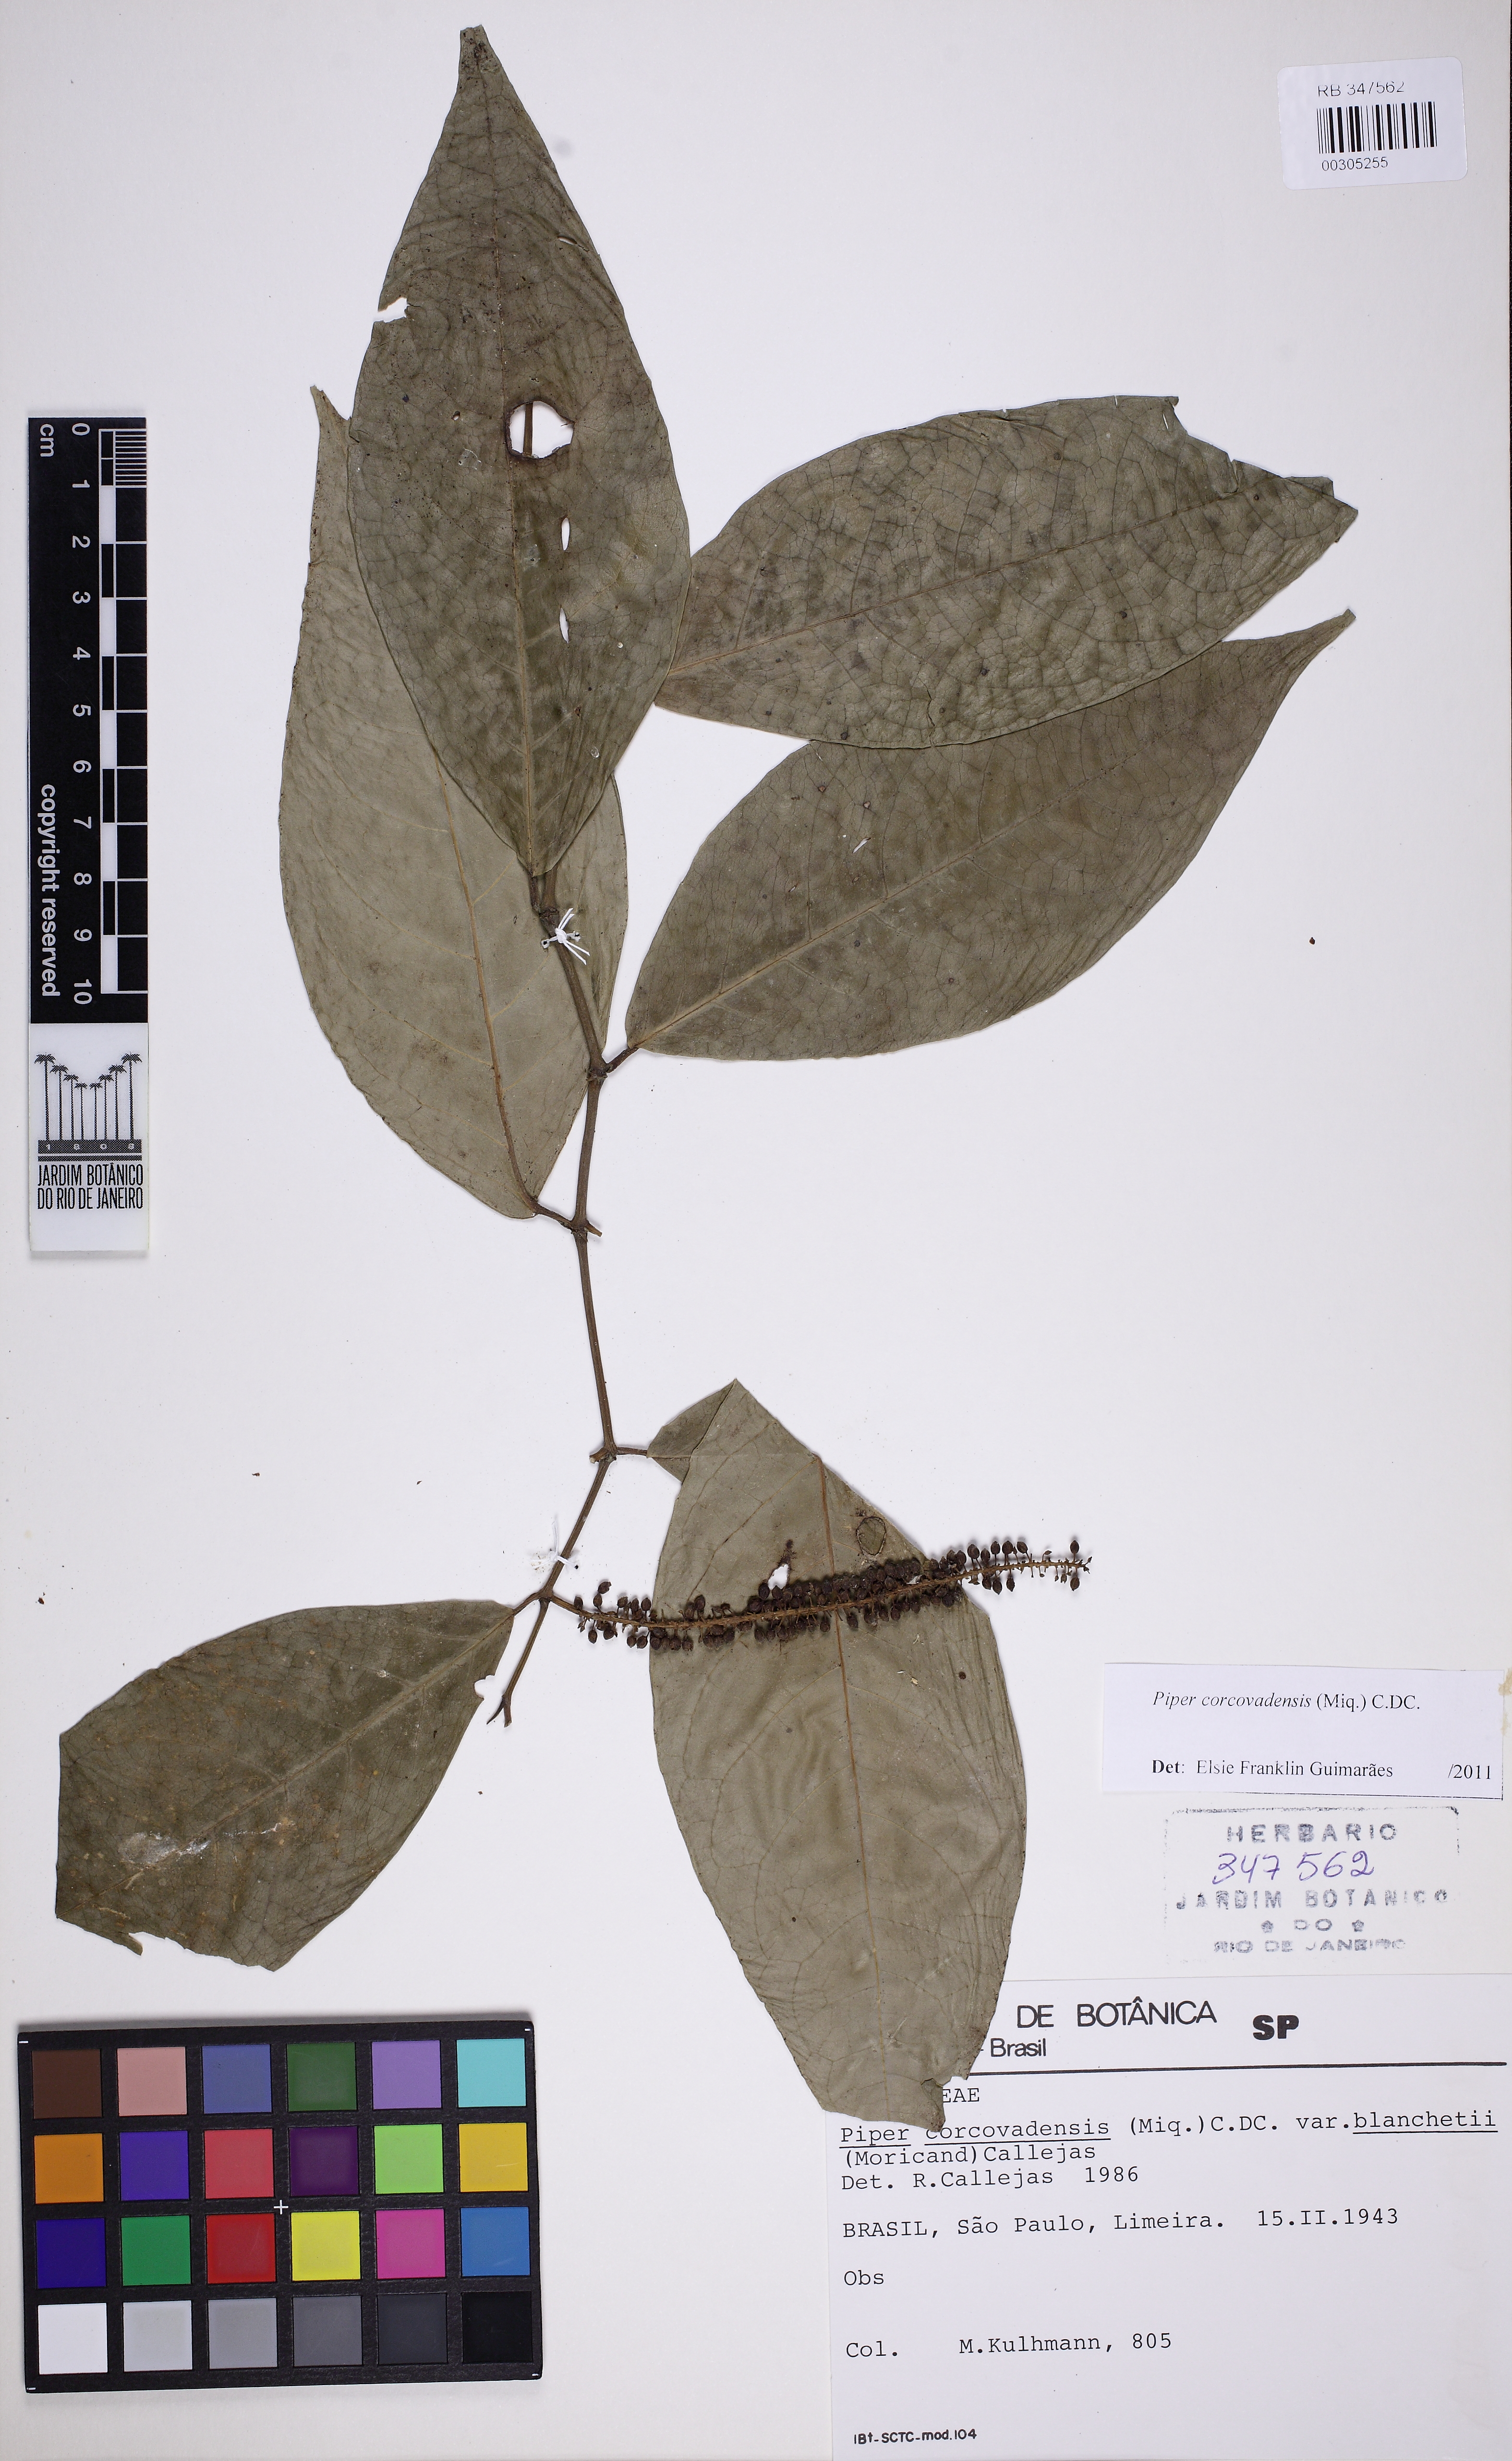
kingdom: Plantae
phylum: Tracheophyta
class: Magnoliopsida
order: Piperales
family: Piperaceae
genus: Piper
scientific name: Piper corcovadense
